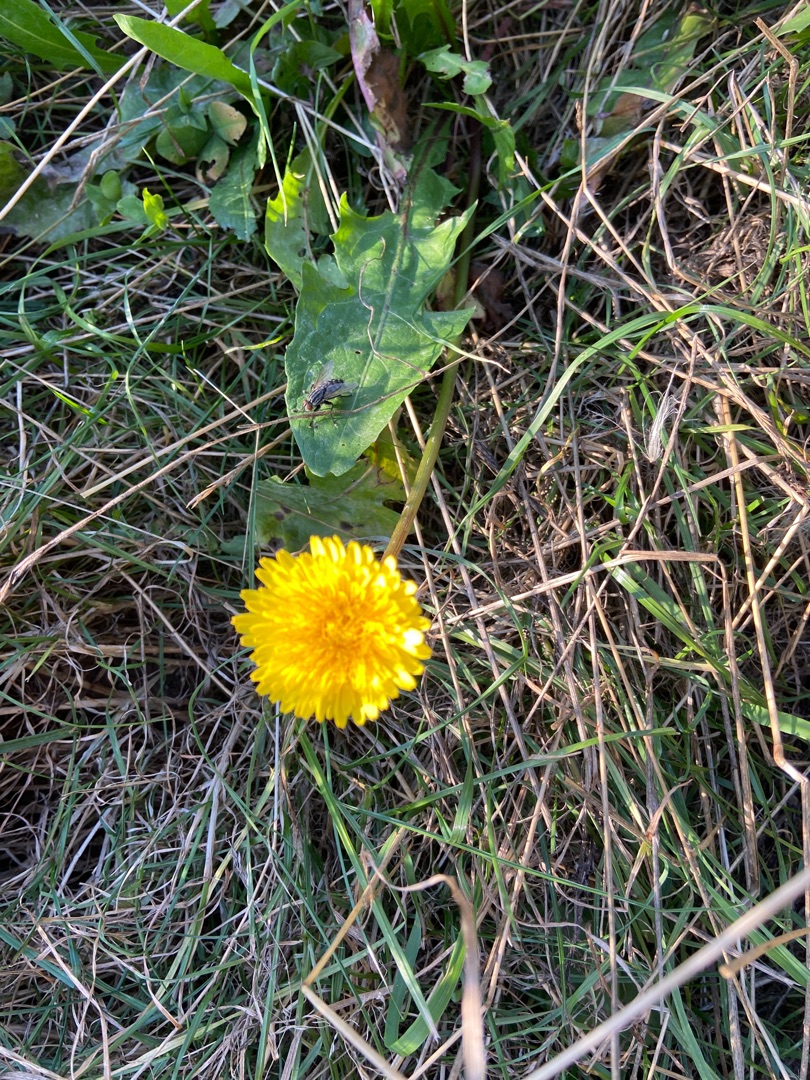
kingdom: Plantae
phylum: Tracheophyta
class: Magnoliopsida
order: Asterales
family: Asteraceae
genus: Taraxacum
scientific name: Taraxacum
